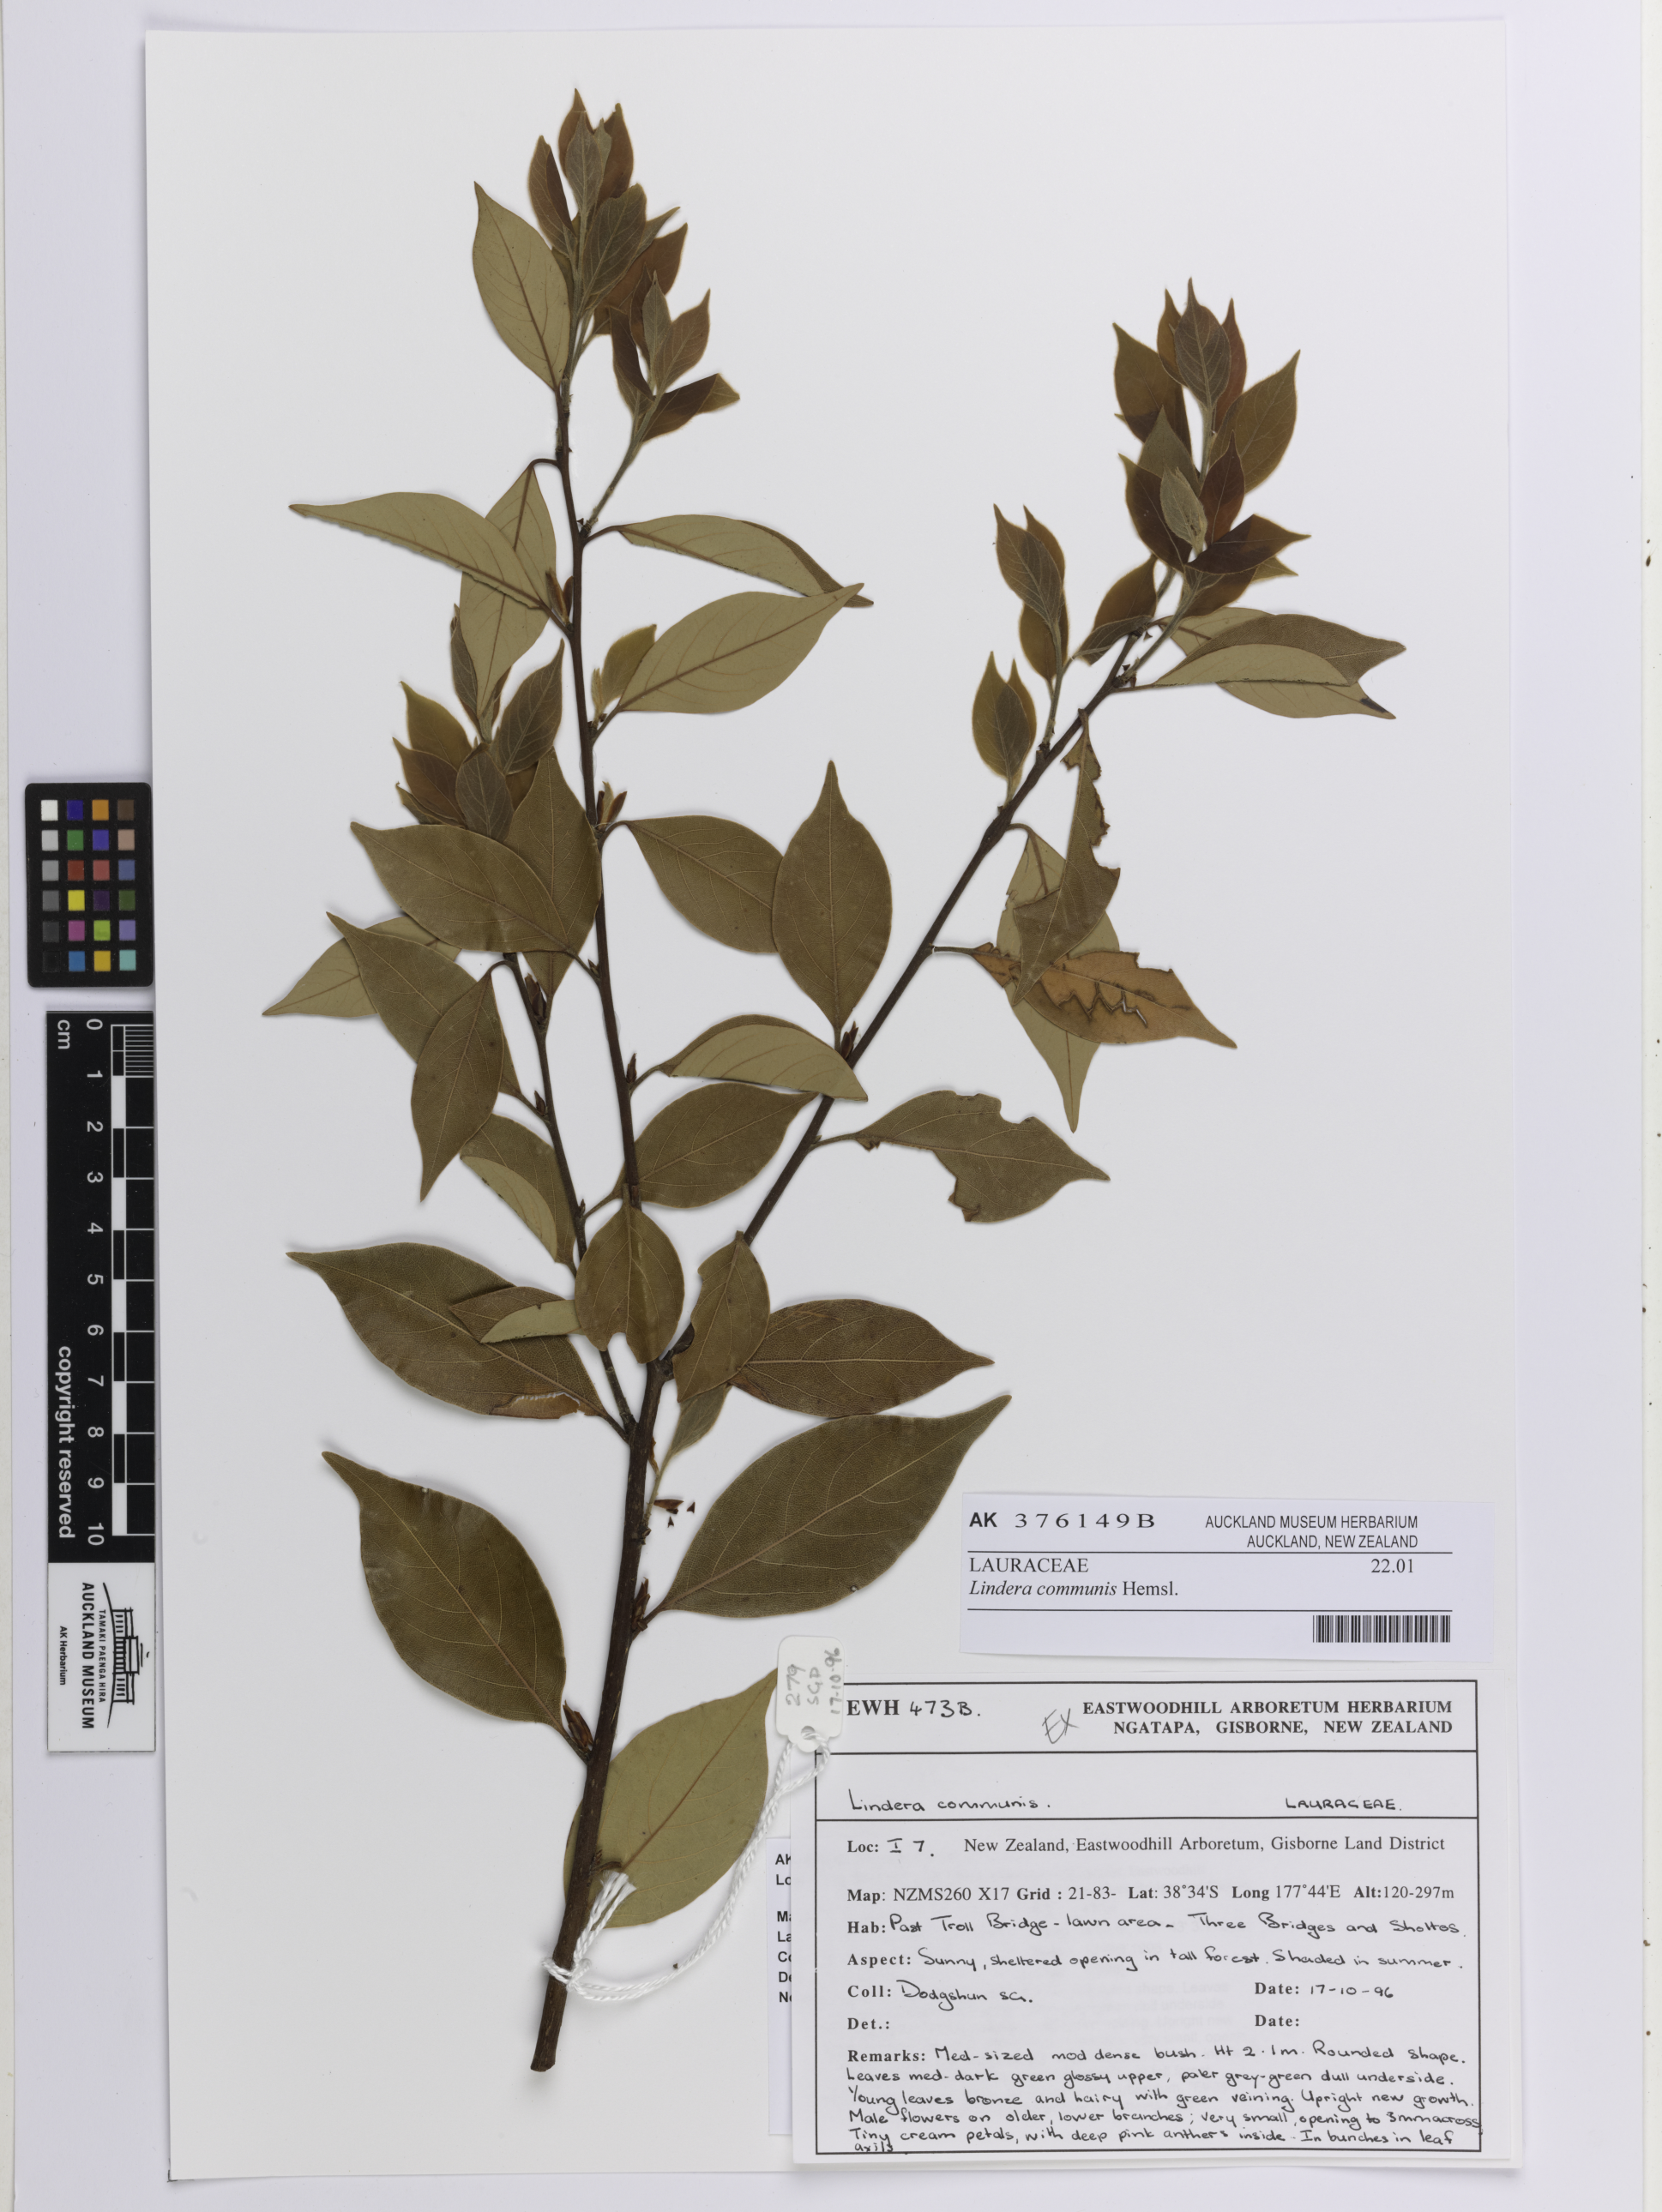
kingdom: Plantae
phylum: Tracheophyta
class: Magnoliopsida
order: Laurales
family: Lauraceae
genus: Lindera
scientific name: Lindera communis
